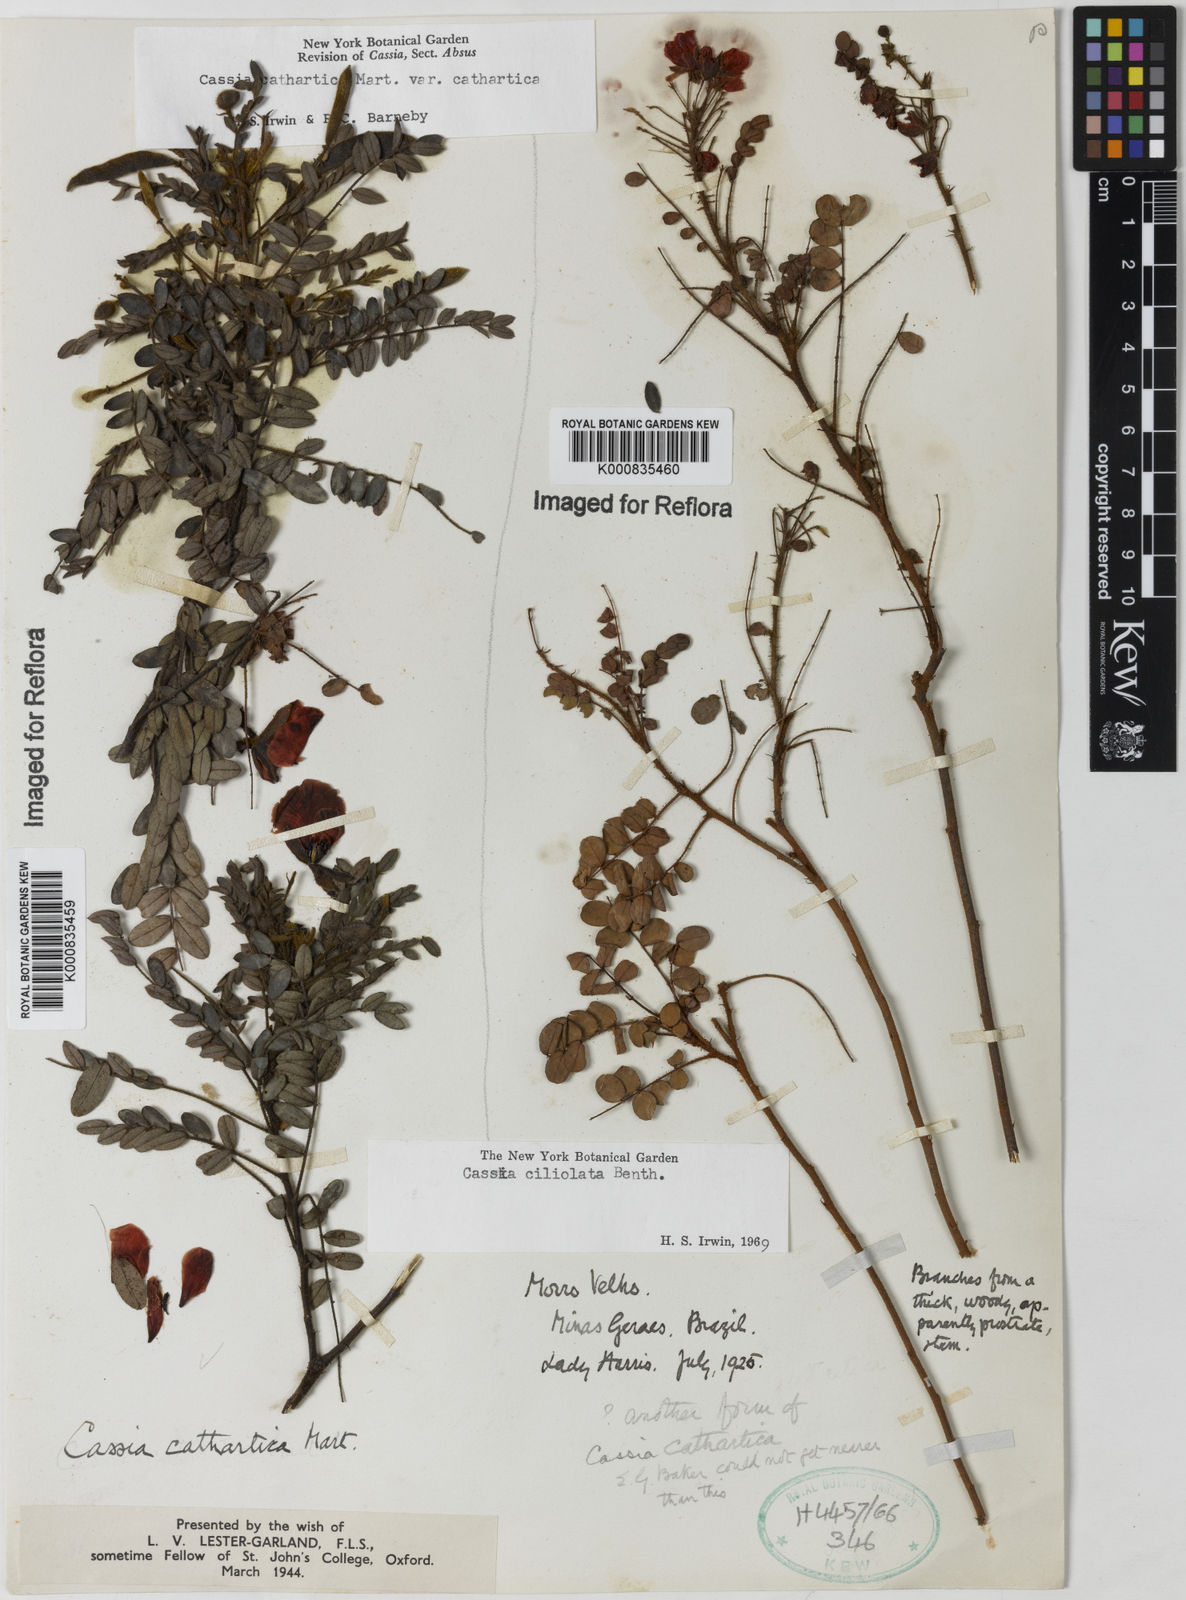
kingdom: Plantae
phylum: Tracheophyta
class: Magnoliopsida
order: Fabales
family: Fabaceae
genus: Chamaecrista
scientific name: Chamaecrista cathartica
